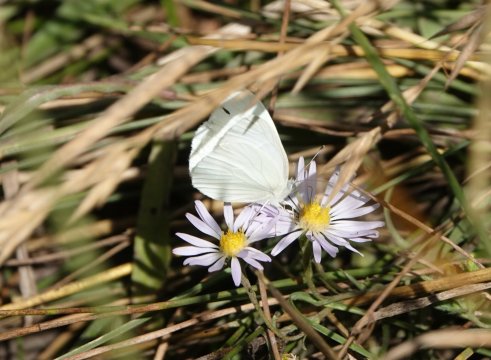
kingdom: Animalia
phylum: Arthropoda
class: Insecta
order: Lepidoptera
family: Pieridae
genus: Pieris
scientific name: Pieris marginalis
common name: Margined White
